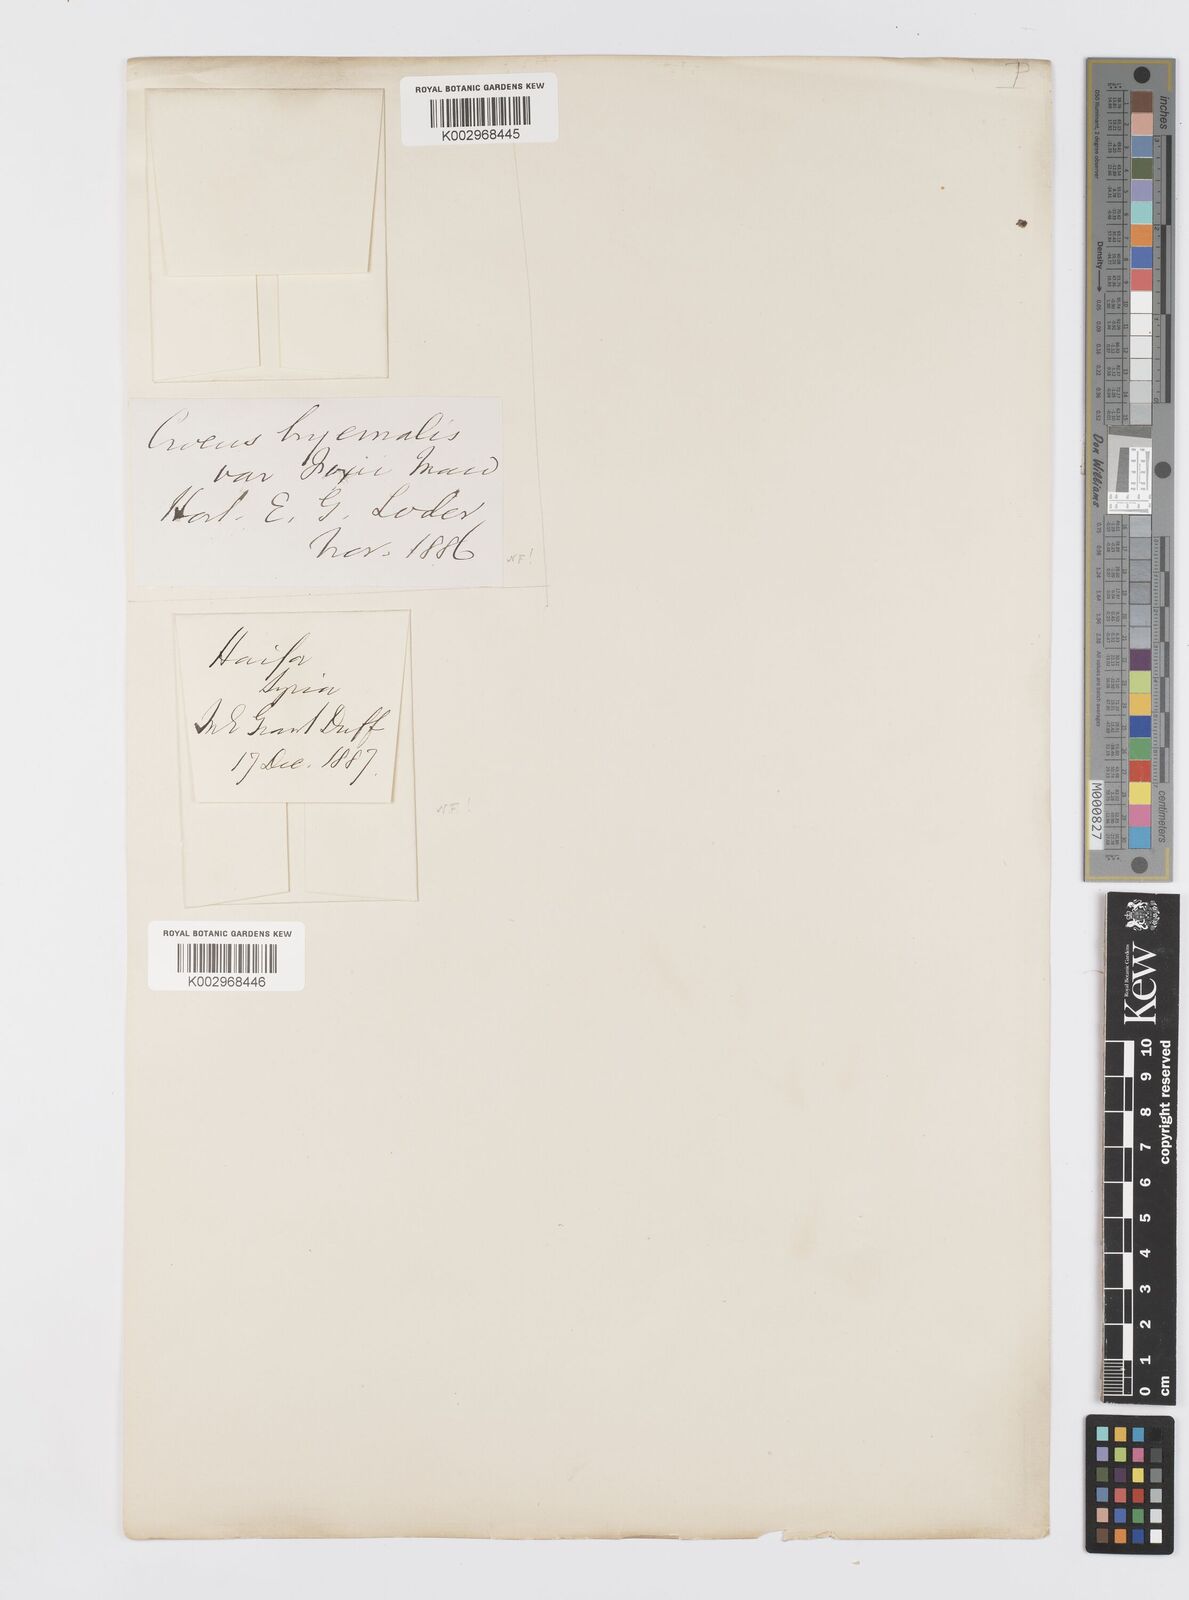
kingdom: Plantae
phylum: Tracheophyta
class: Liliopsida
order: Asparagales
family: Iridaceae
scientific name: Iridaceae
